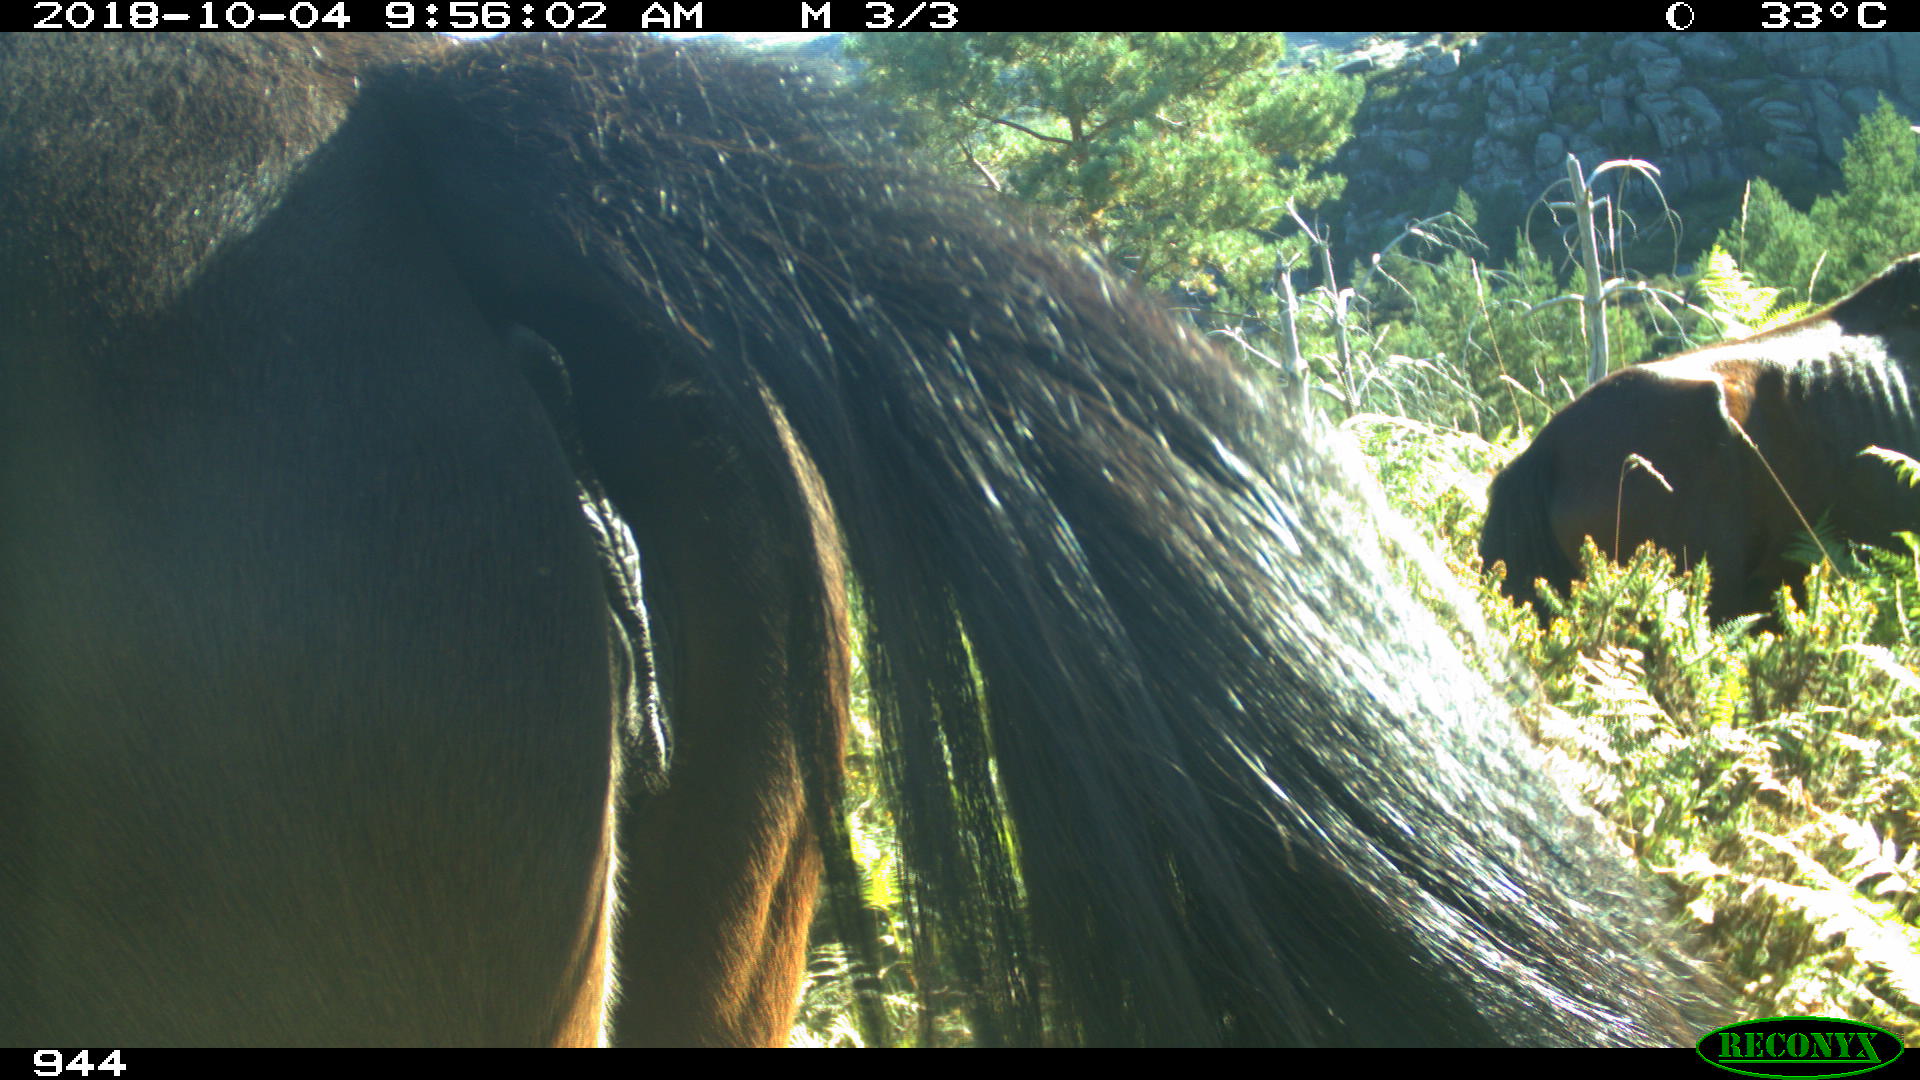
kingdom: Animalia
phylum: Chordata
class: Mammalia
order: Perissodactyla
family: Equidae
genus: Equus
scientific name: Equus caballus
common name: Horse
